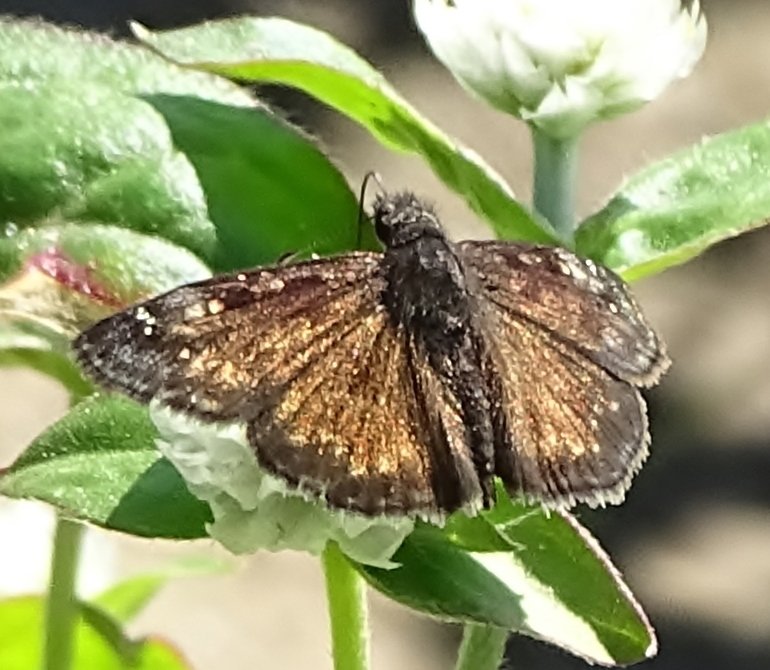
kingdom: Animalia
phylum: Arthropoda
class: Insecta
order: Lepidoptera
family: Hesperiidae
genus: Erynnis
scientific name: Erynnis
